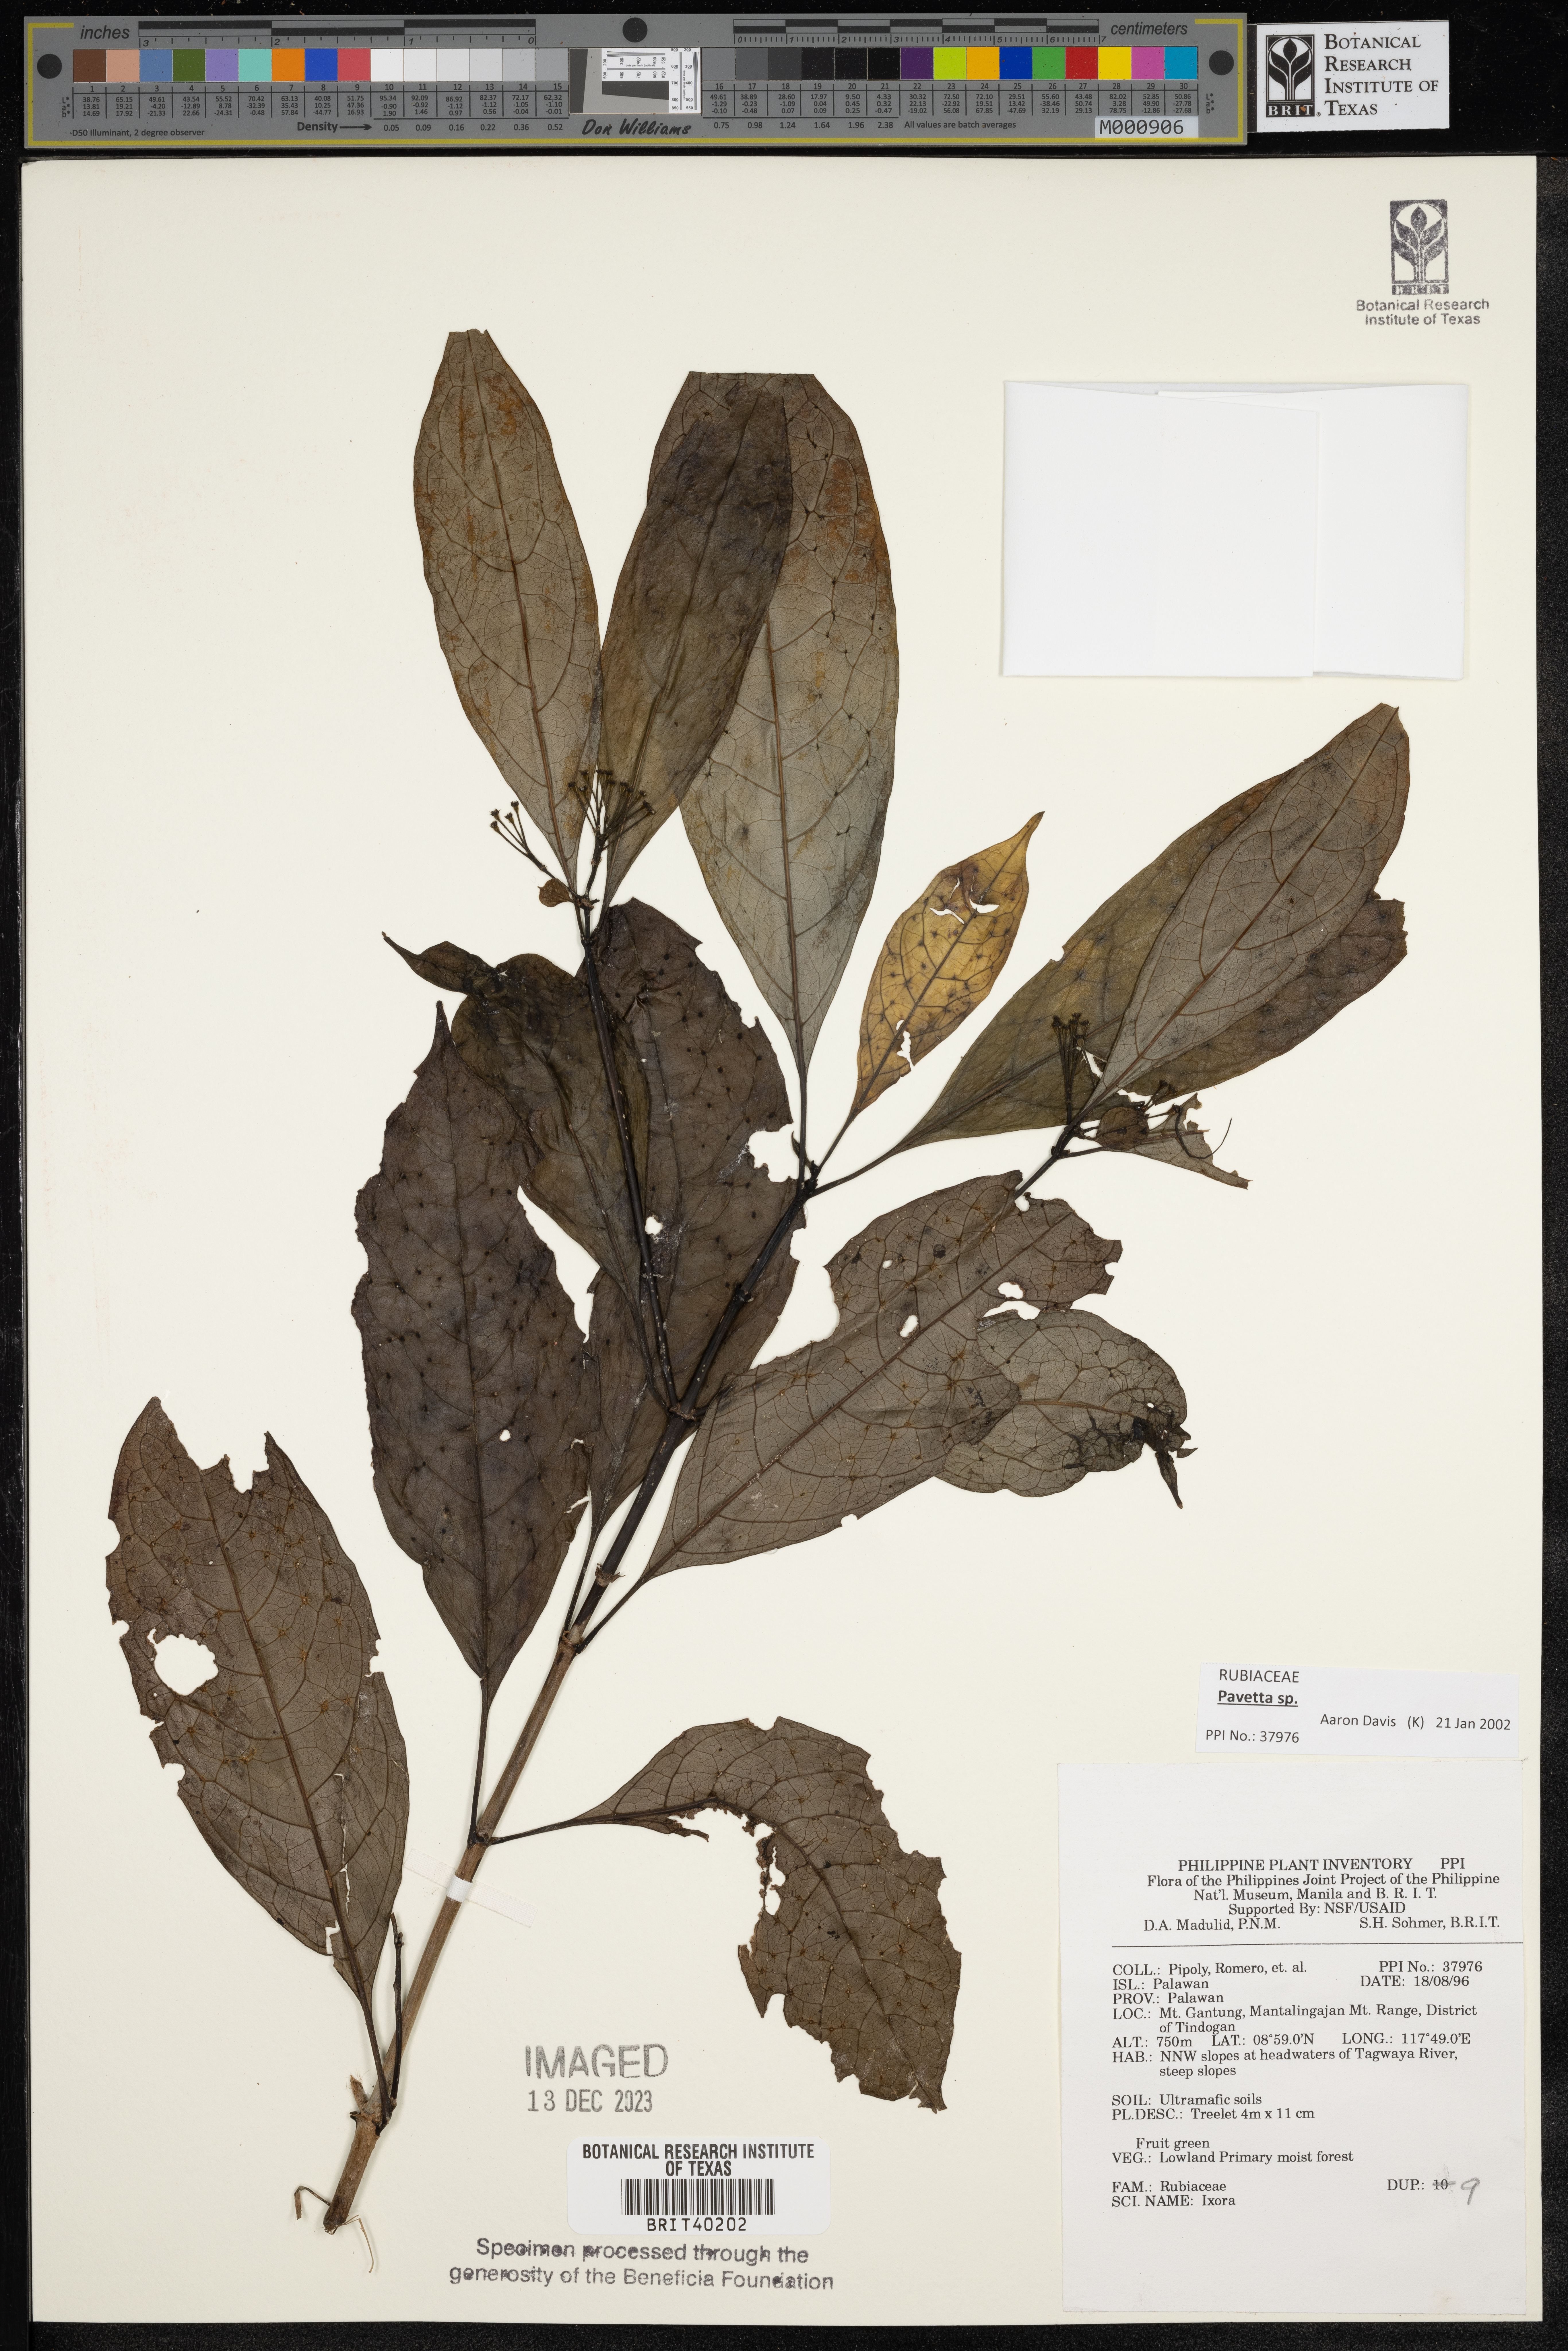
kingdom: Plantae
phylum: Tracheophyta
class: Magnoliopsida
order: Gentianales
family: Rubiaceae
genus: Ixora
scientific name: Ixora
